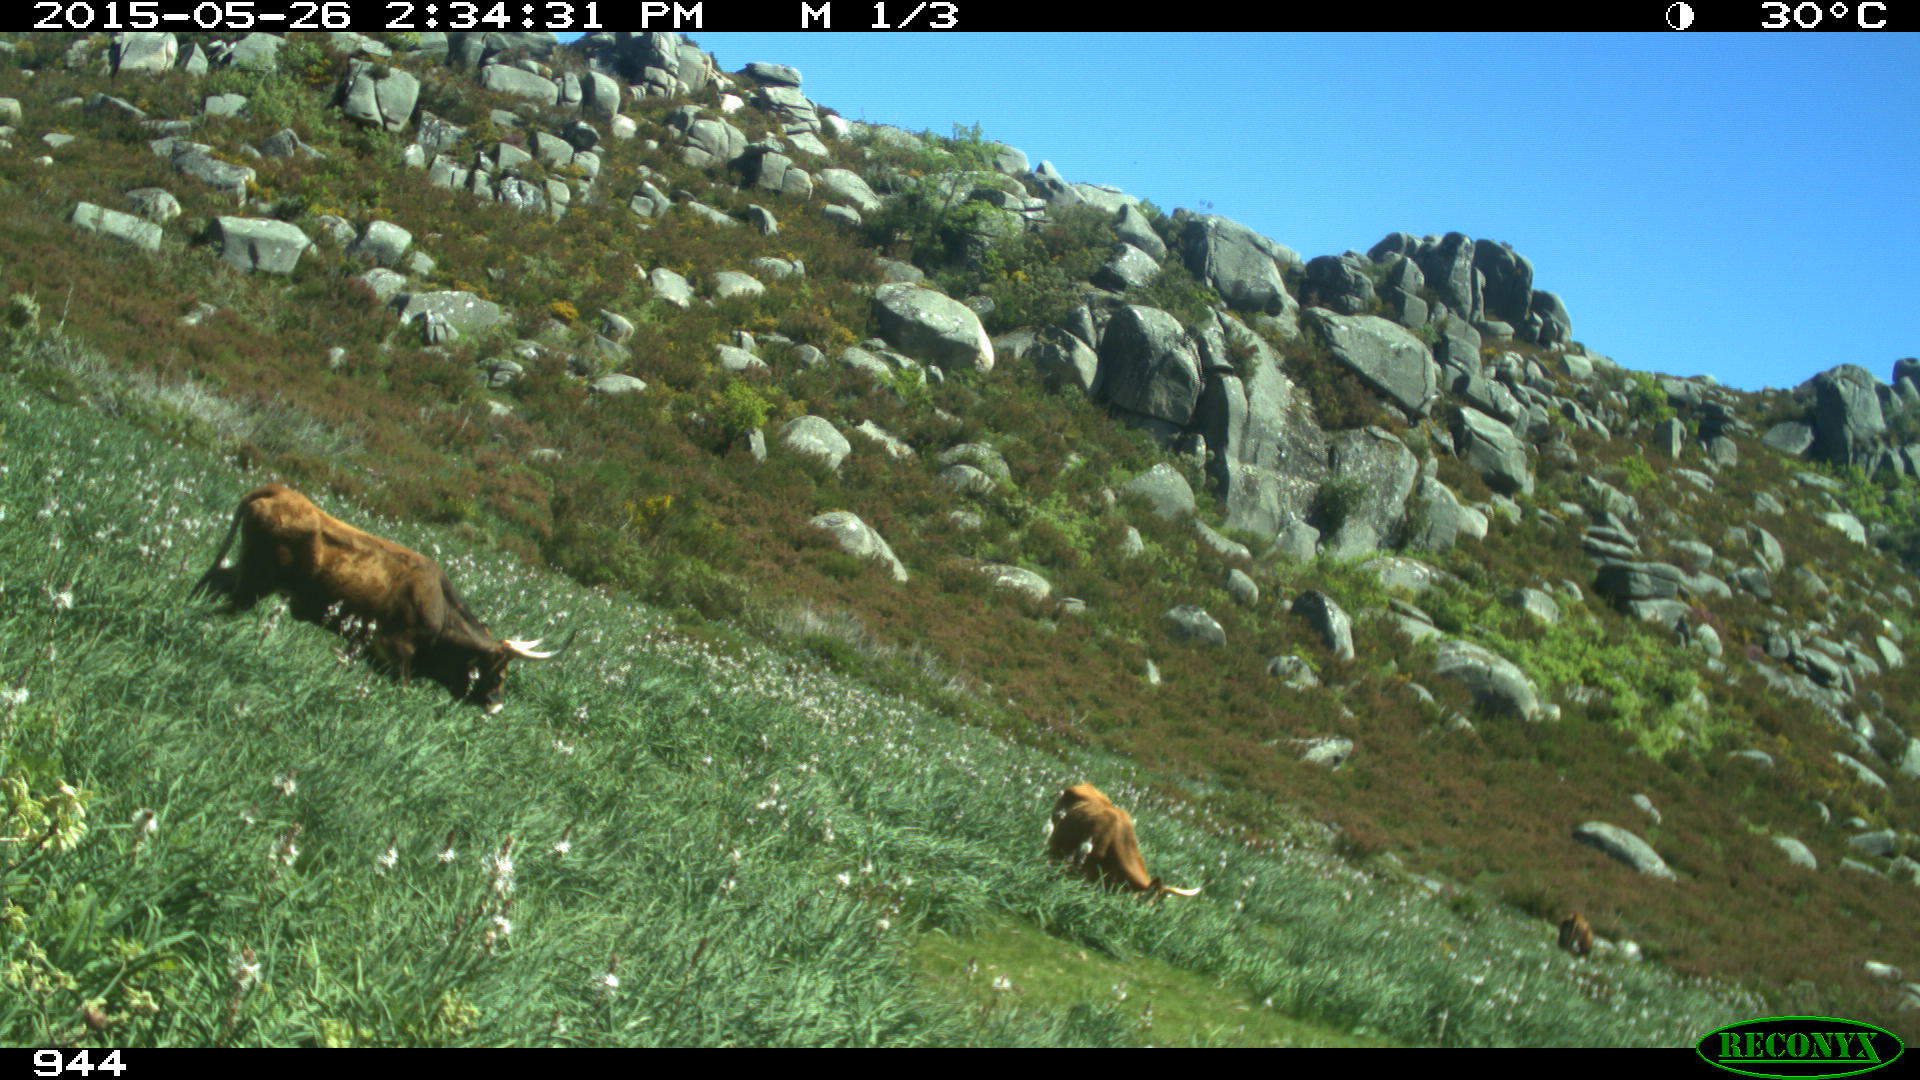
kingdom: Animalia
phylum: Chordata
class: Mammalia
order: Artiodactyla
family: Bovidae
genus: Bos
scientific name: Bos taurus
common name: Domesticated cattle
